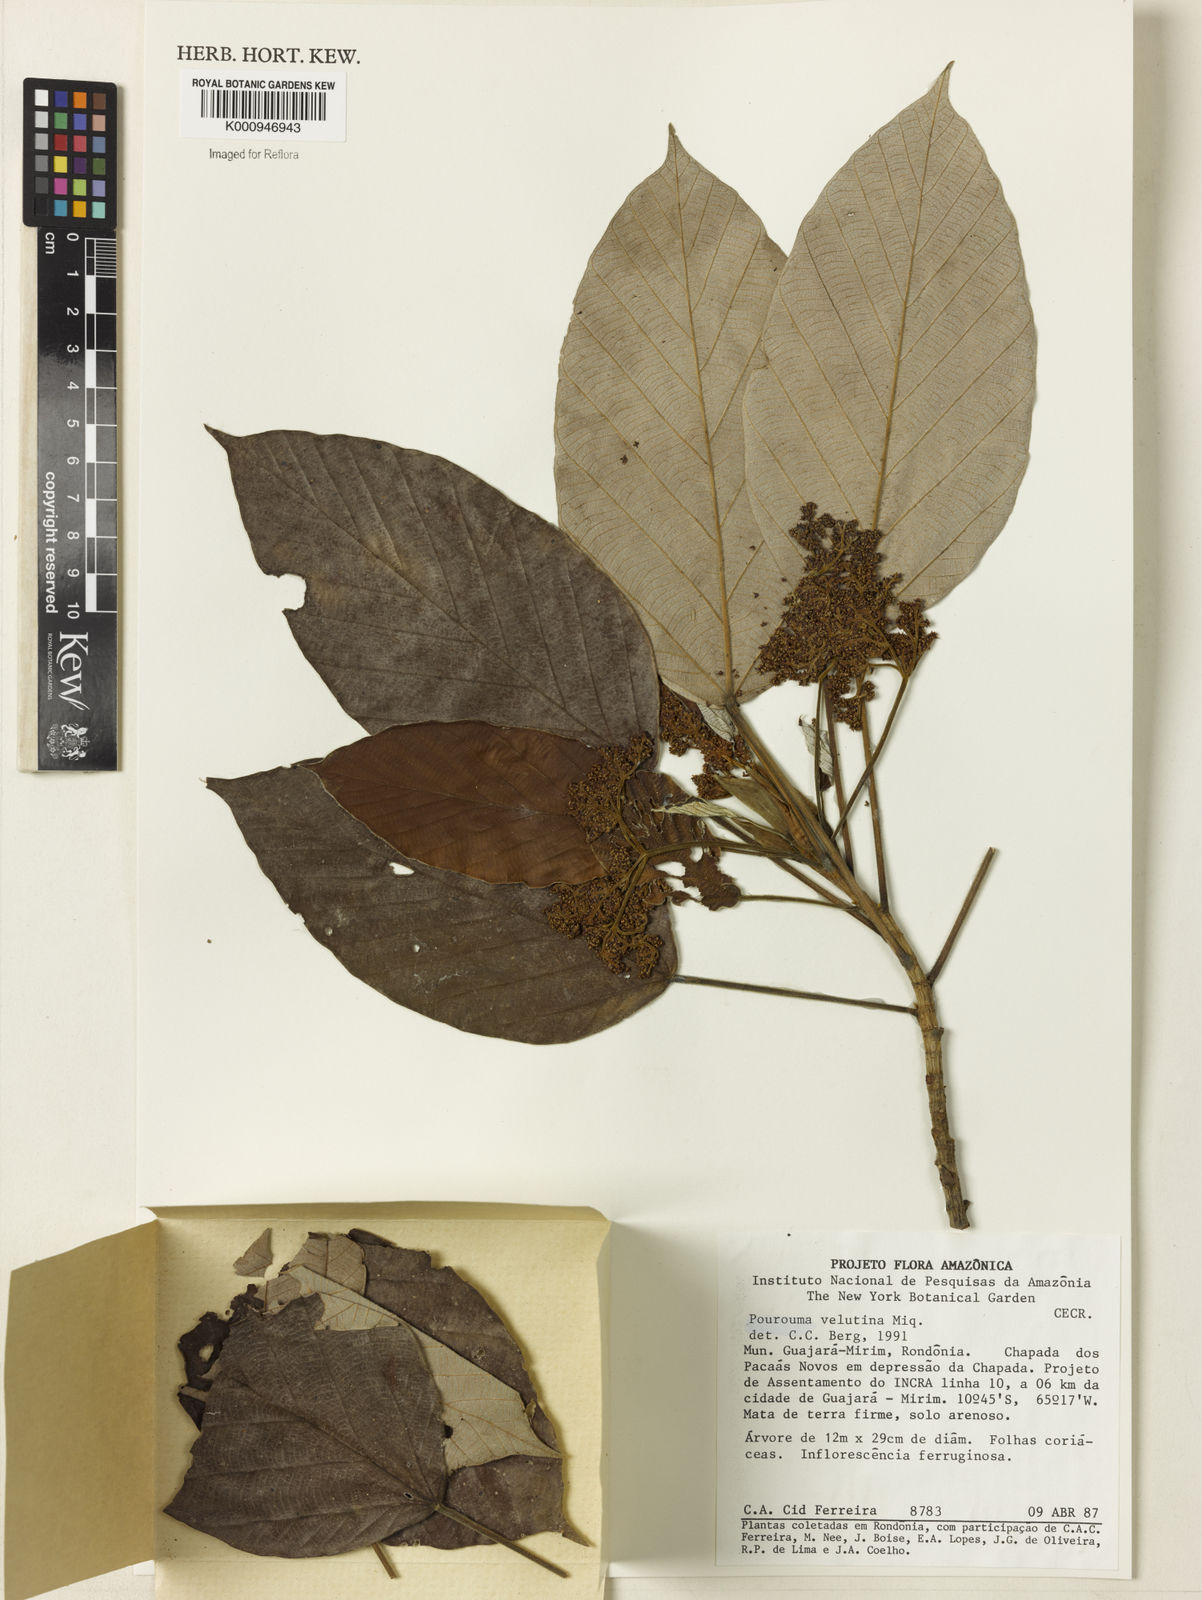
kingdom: Plantae
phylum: Tracheophyta
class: Magnoliopsida
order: Rosales
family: Urticaceae
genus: Pourouma
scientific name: Pourouma velutina
